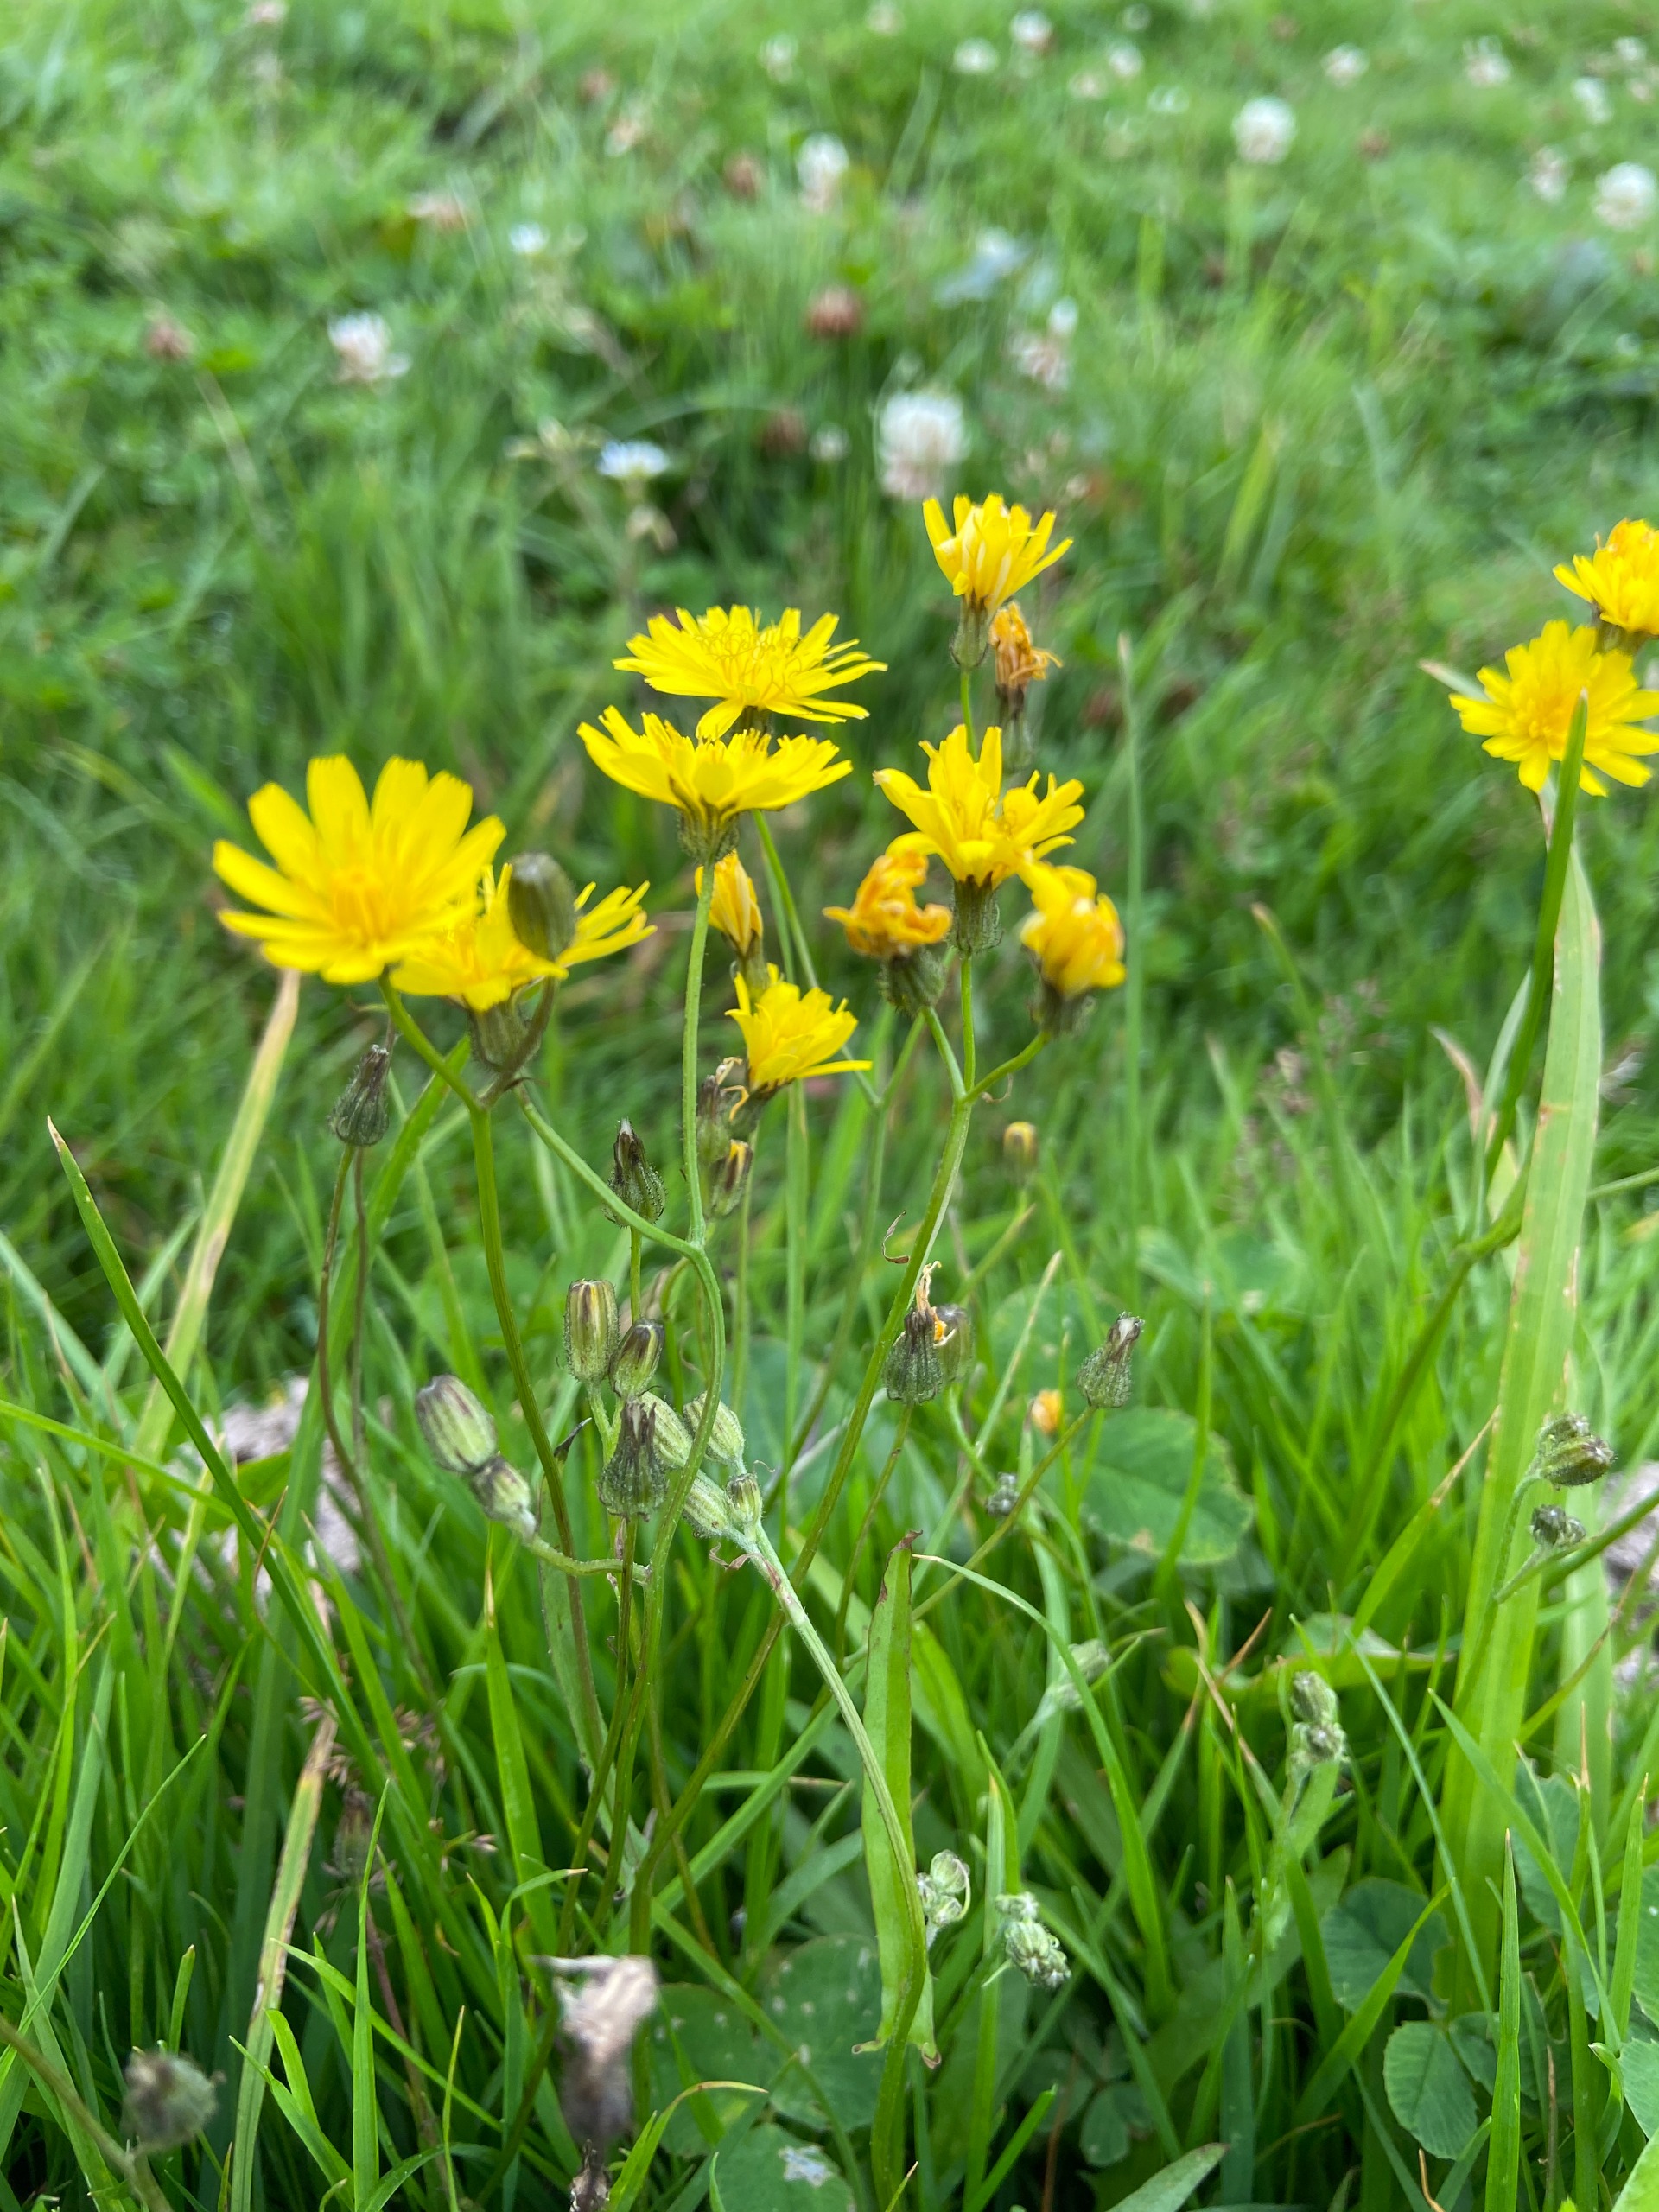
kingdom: Plantae
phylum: Tracheophyta
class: Magnoliopsida
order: Asterales
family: Asteraceae
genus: Crepis
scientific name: Crepis capillaris
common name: Grøn høgeskæg
